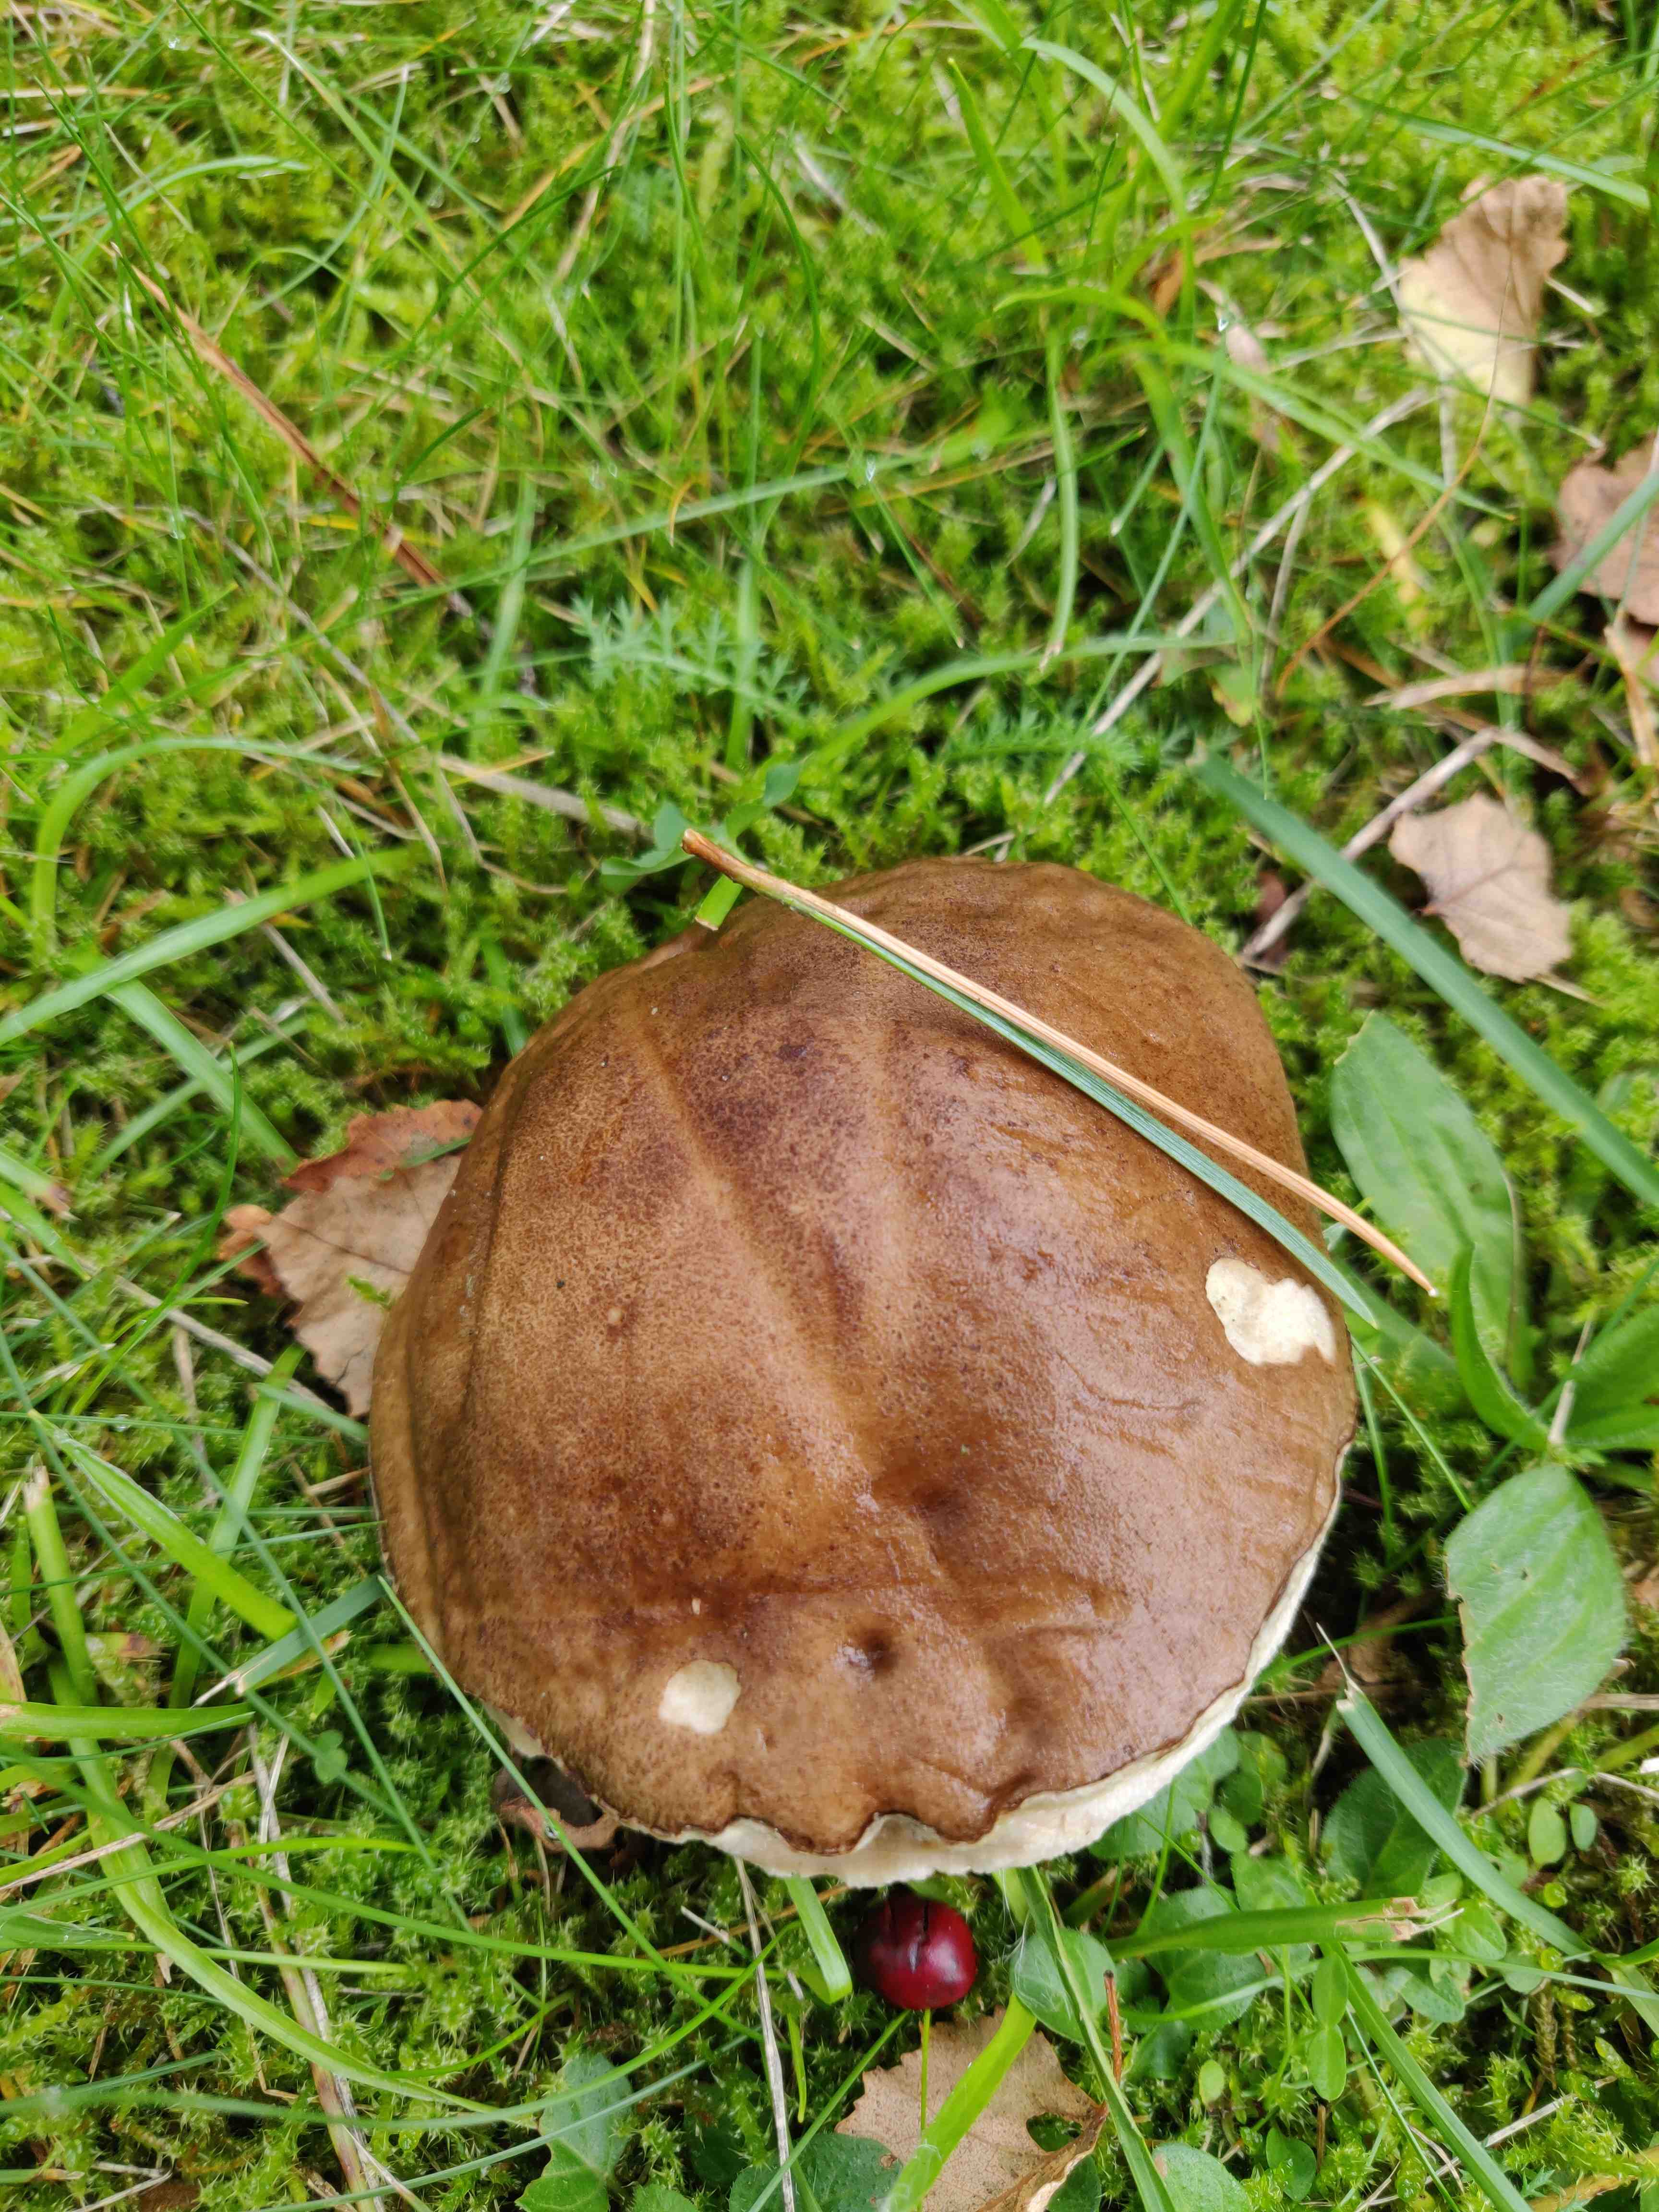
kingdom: Fungi
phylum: Basidiomycota
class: Agaricomycetes
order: Boletales
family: Boletaceae
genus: Imleria
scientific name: Imleria badia
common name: brunstokket rørhat
